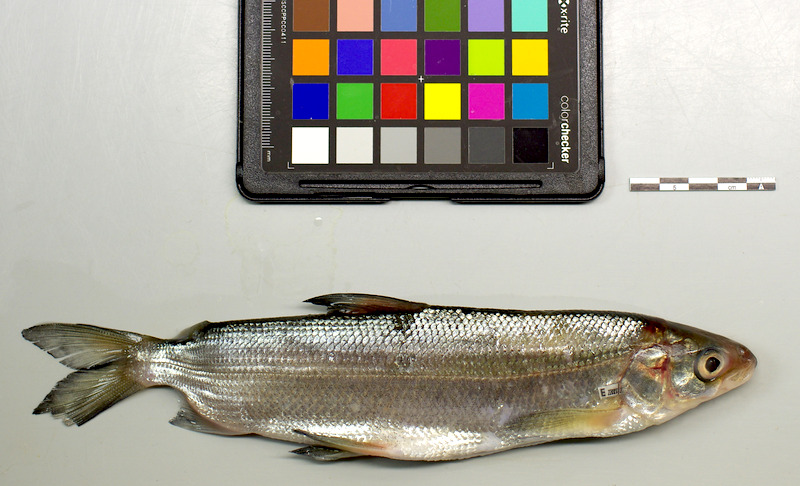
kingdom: Animalia
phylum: Chordata
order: Salmoniformes
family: Salmonidae
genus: Coregonus
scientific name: Coregonus
